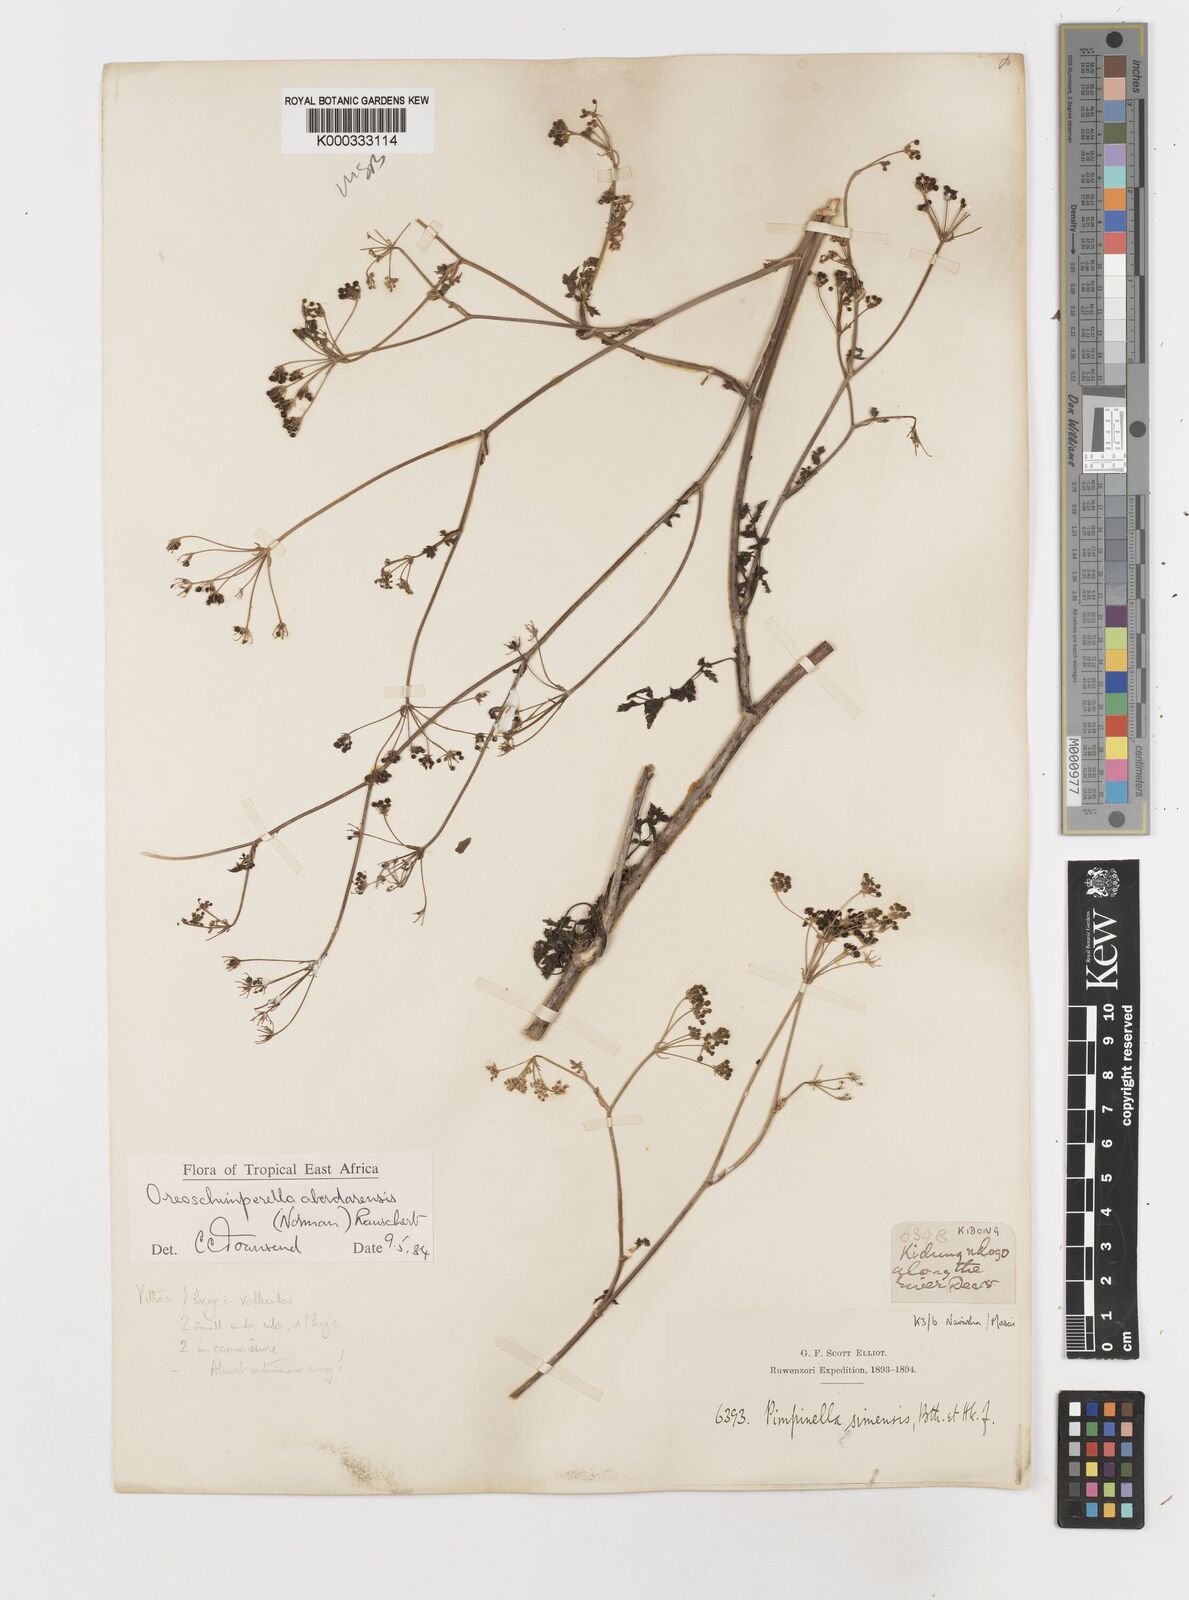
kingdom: Plantae
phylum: Tracheophyta
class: Magnoliopsida
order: Apiales
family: Apiaceae
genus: Oreoschimperella
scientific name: Oreoschimperella aberdarensis
